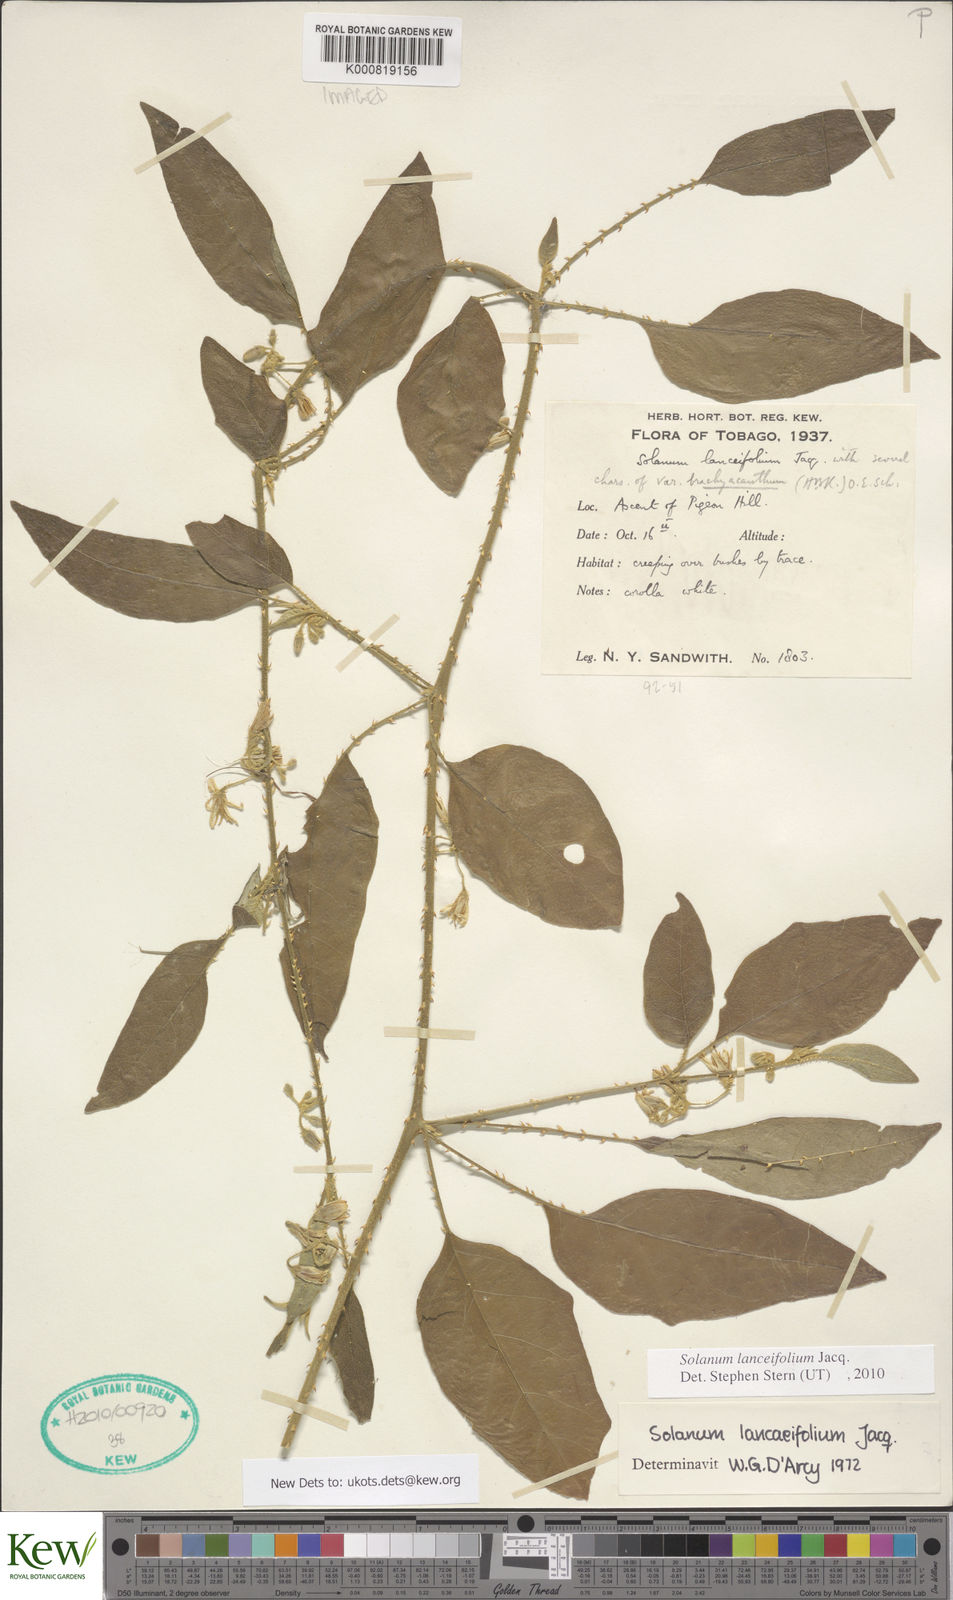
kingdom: Plantae
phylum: Tracheophyta
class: Magnoliopsida
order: Solanales
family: Solanaceae
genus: Solanum
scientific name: Solanum lanceifolium
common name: Lanceleaf nightshade
